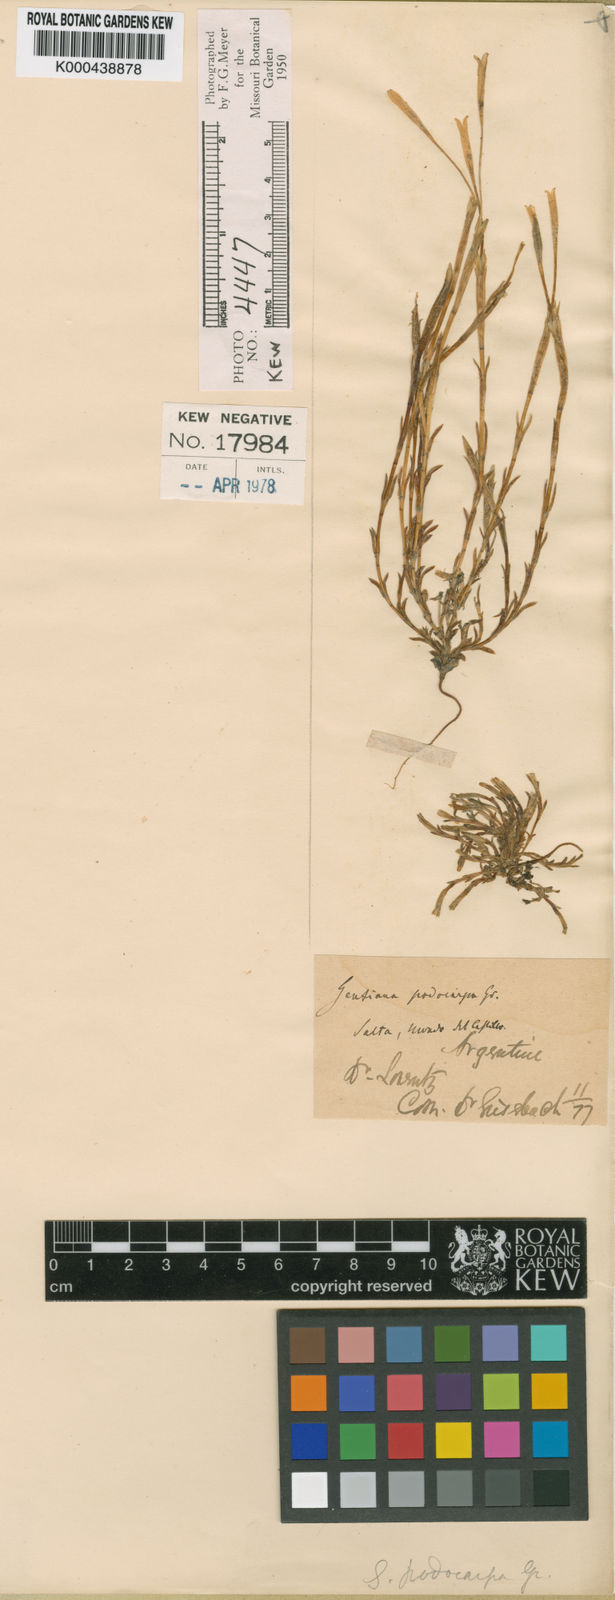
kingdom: Plantae
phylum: Tracheophyta
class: Magnoliopsida
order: Gentianales
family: Gentianaceae
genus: Gentiana
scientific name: Gentiana gayi
